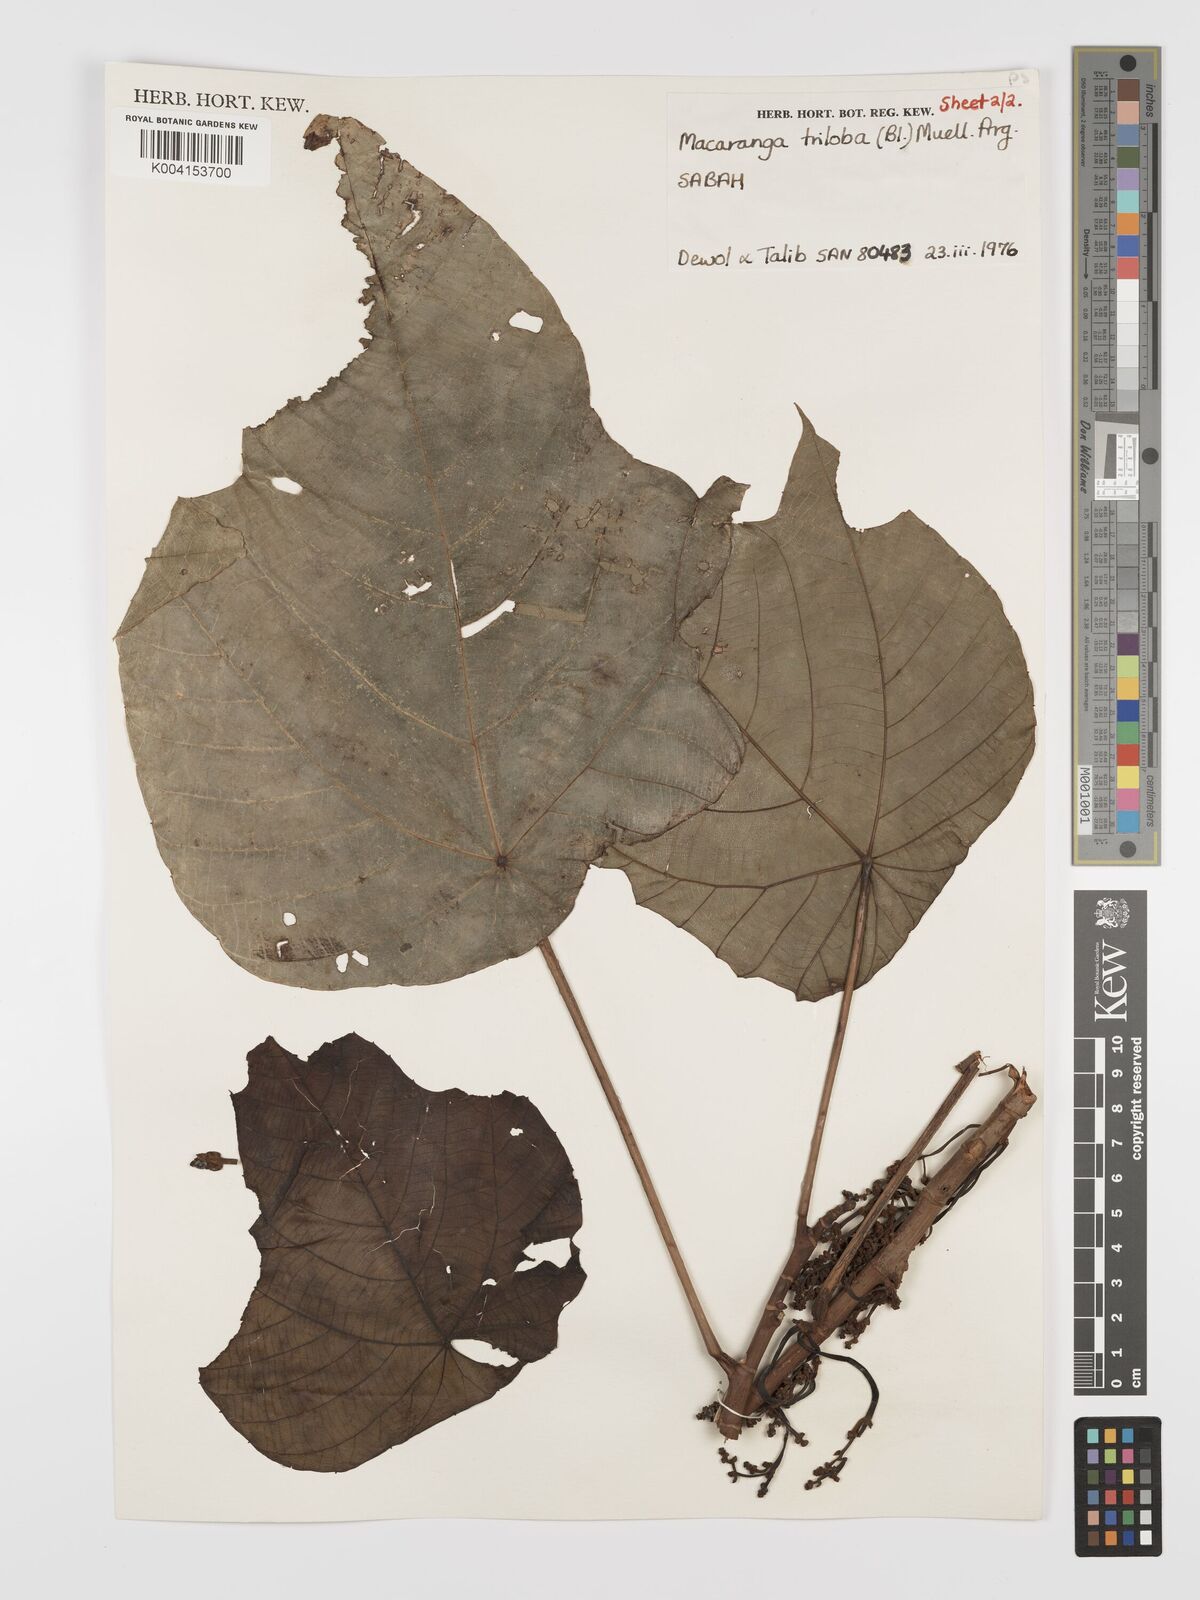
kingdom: Plantae
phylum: Tracheophyta
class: Magnoliopsida
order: Malpighiales
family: Euphorbiaceae
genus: Macaranga
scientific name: Macaranga triloba
